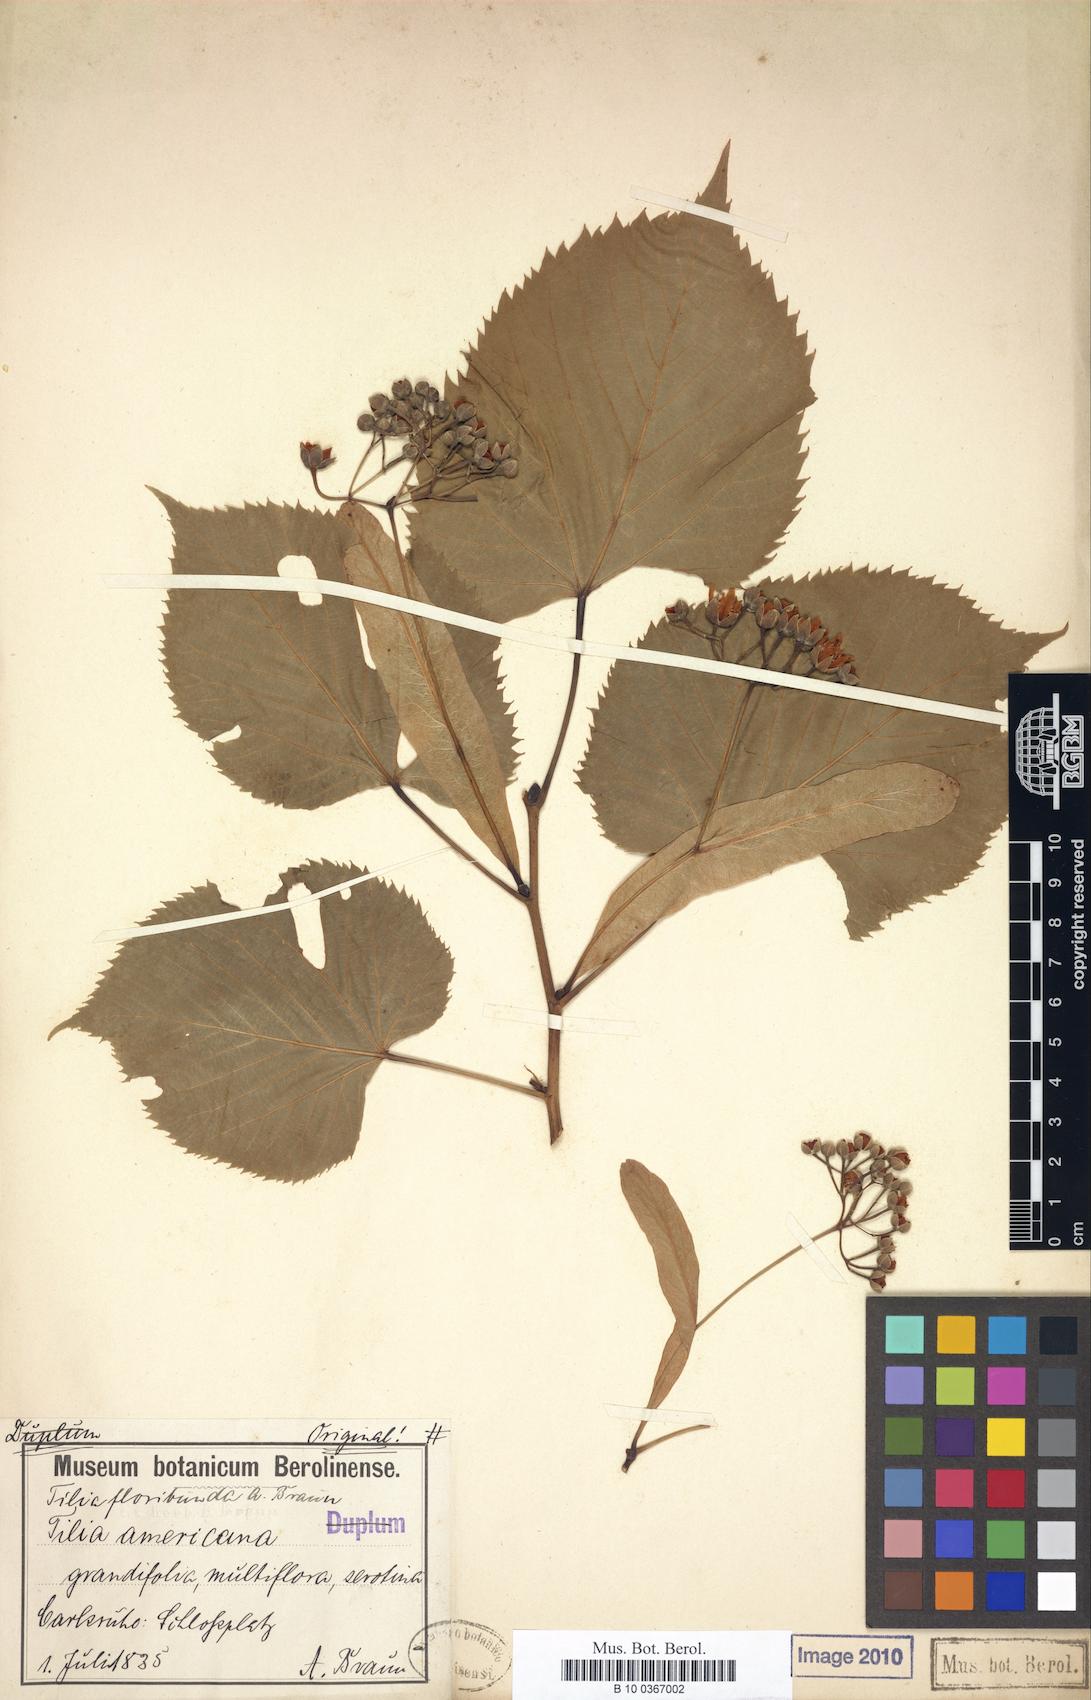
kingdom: Plantae
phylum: Tracheophyta
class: Magnoliopsida
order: Malvales
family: Malvaceae
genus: Tilia
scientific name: Tilia flavescens
